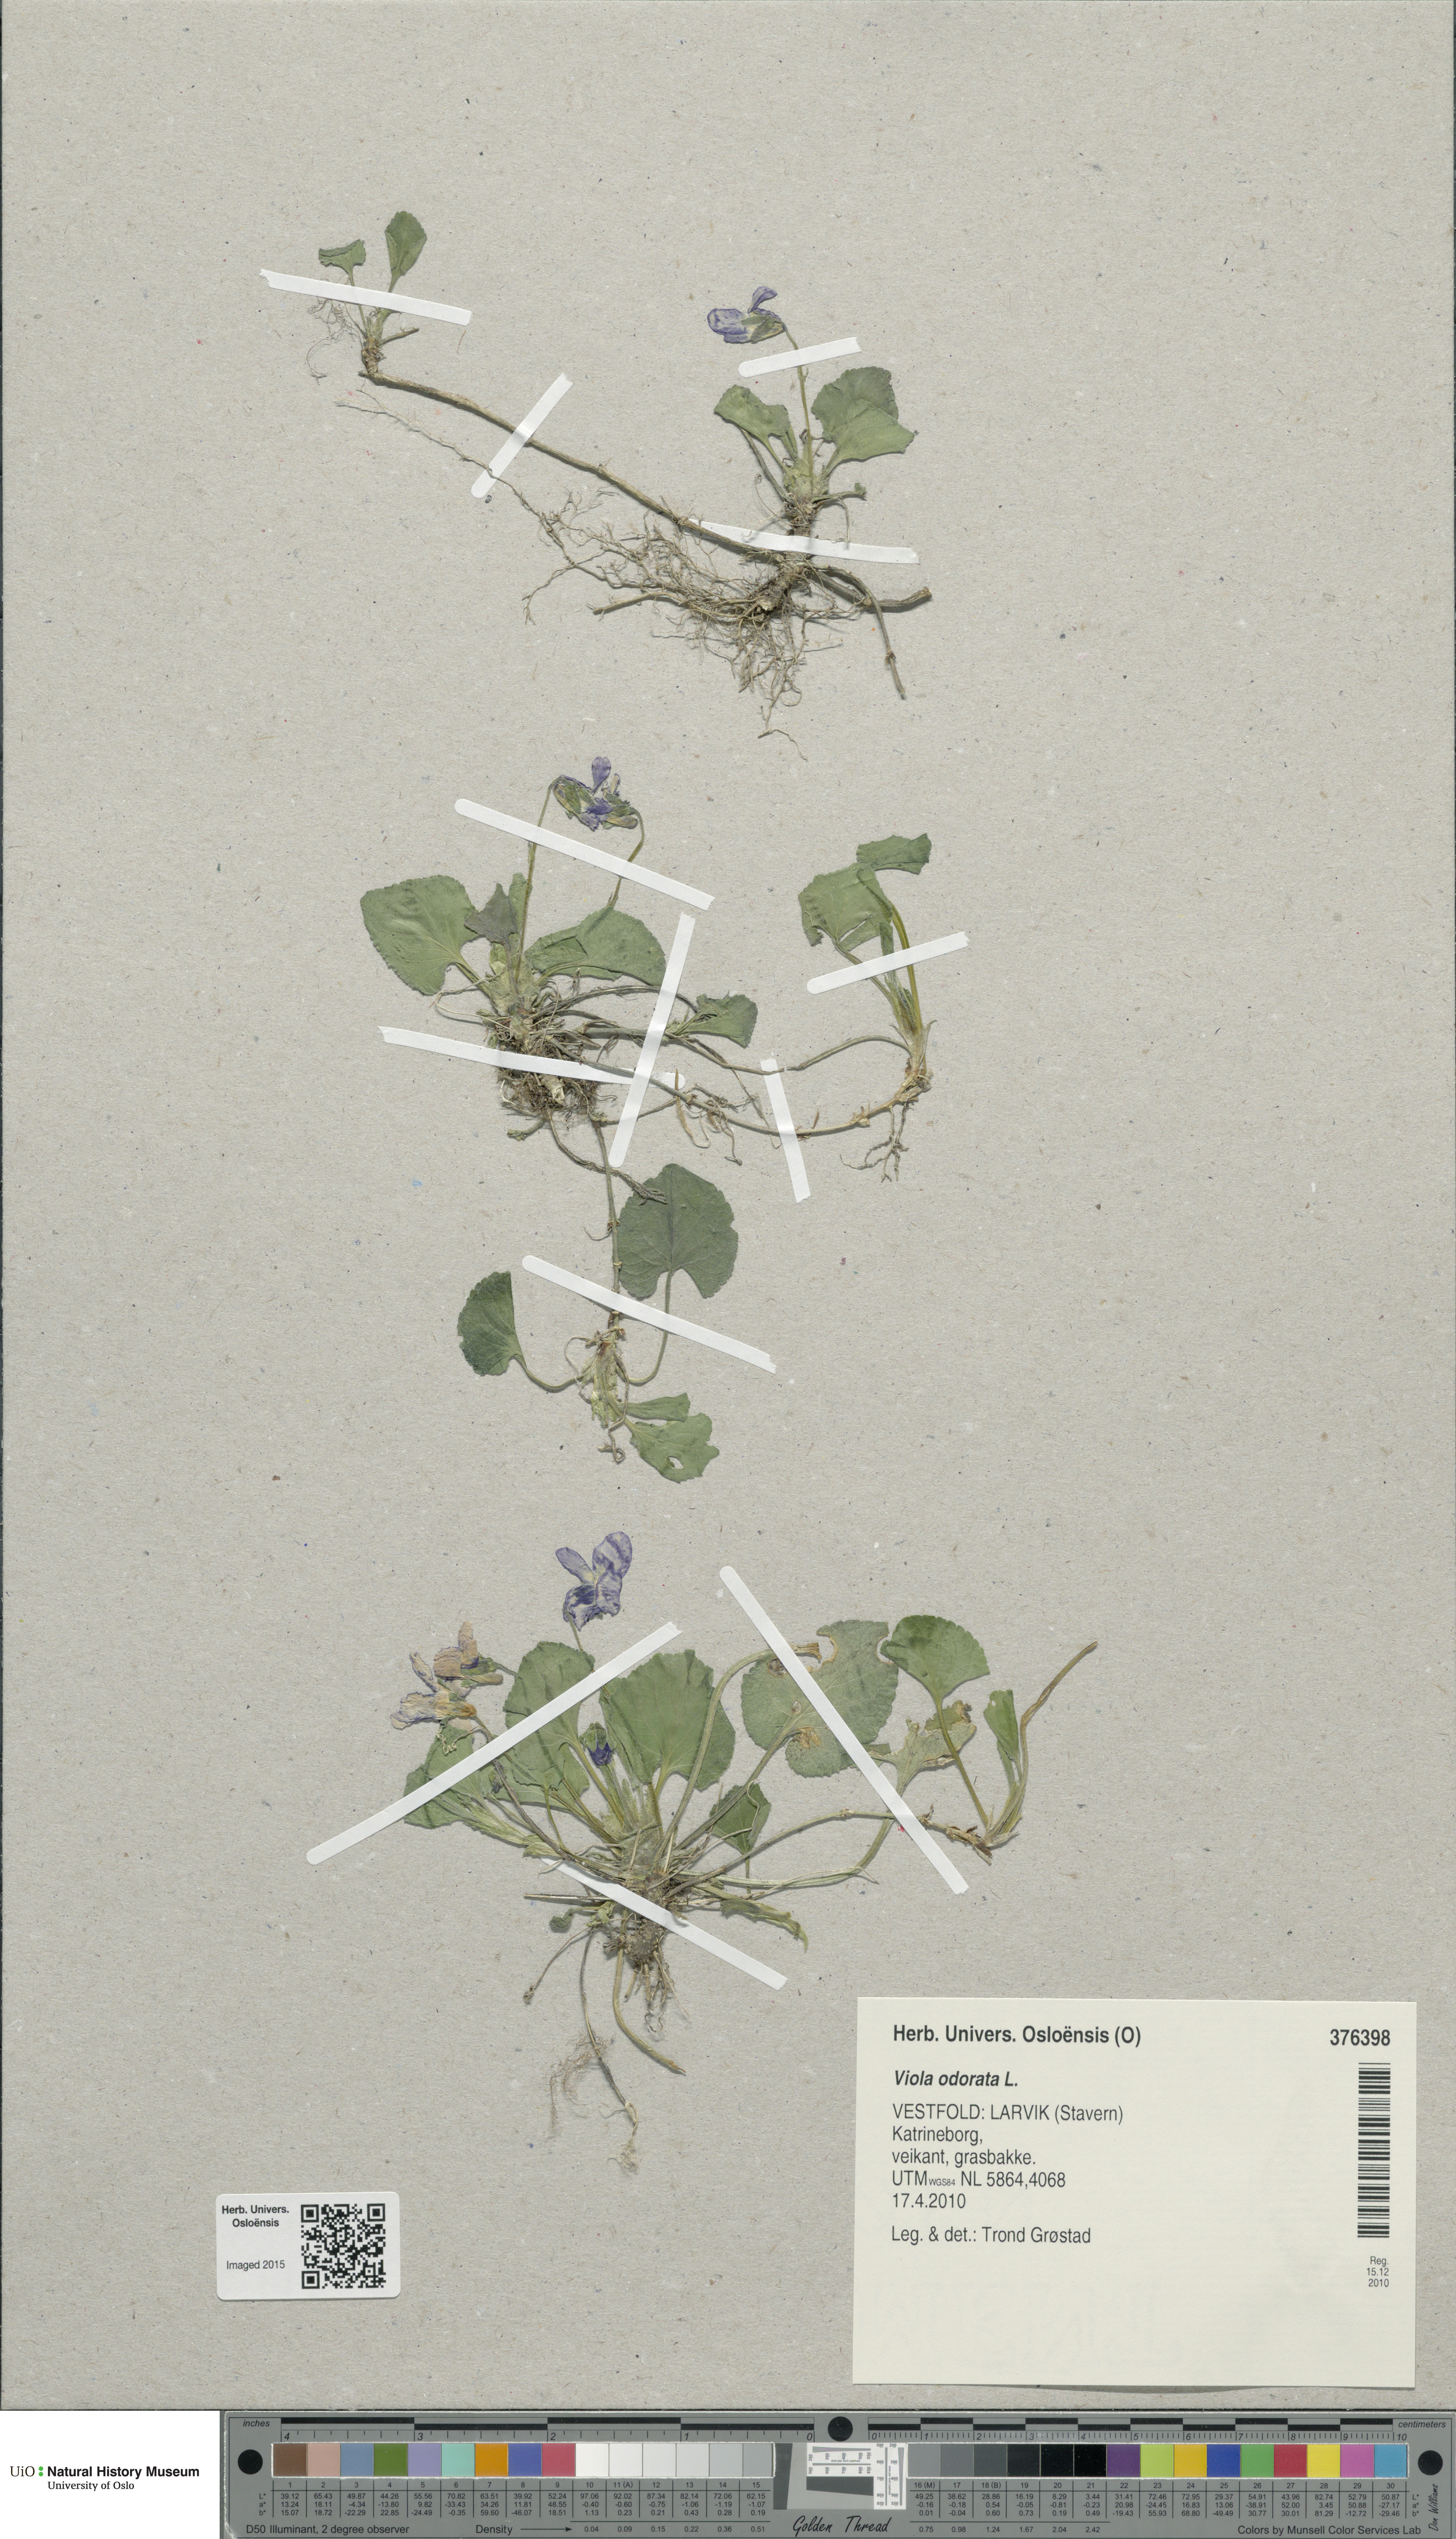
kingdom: Plantae
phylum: Tracheophyta
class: Magnoliopsida
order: Malpighiales
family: Violaceae
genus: Viola
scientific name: Viola odorata
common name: Sweet violet
